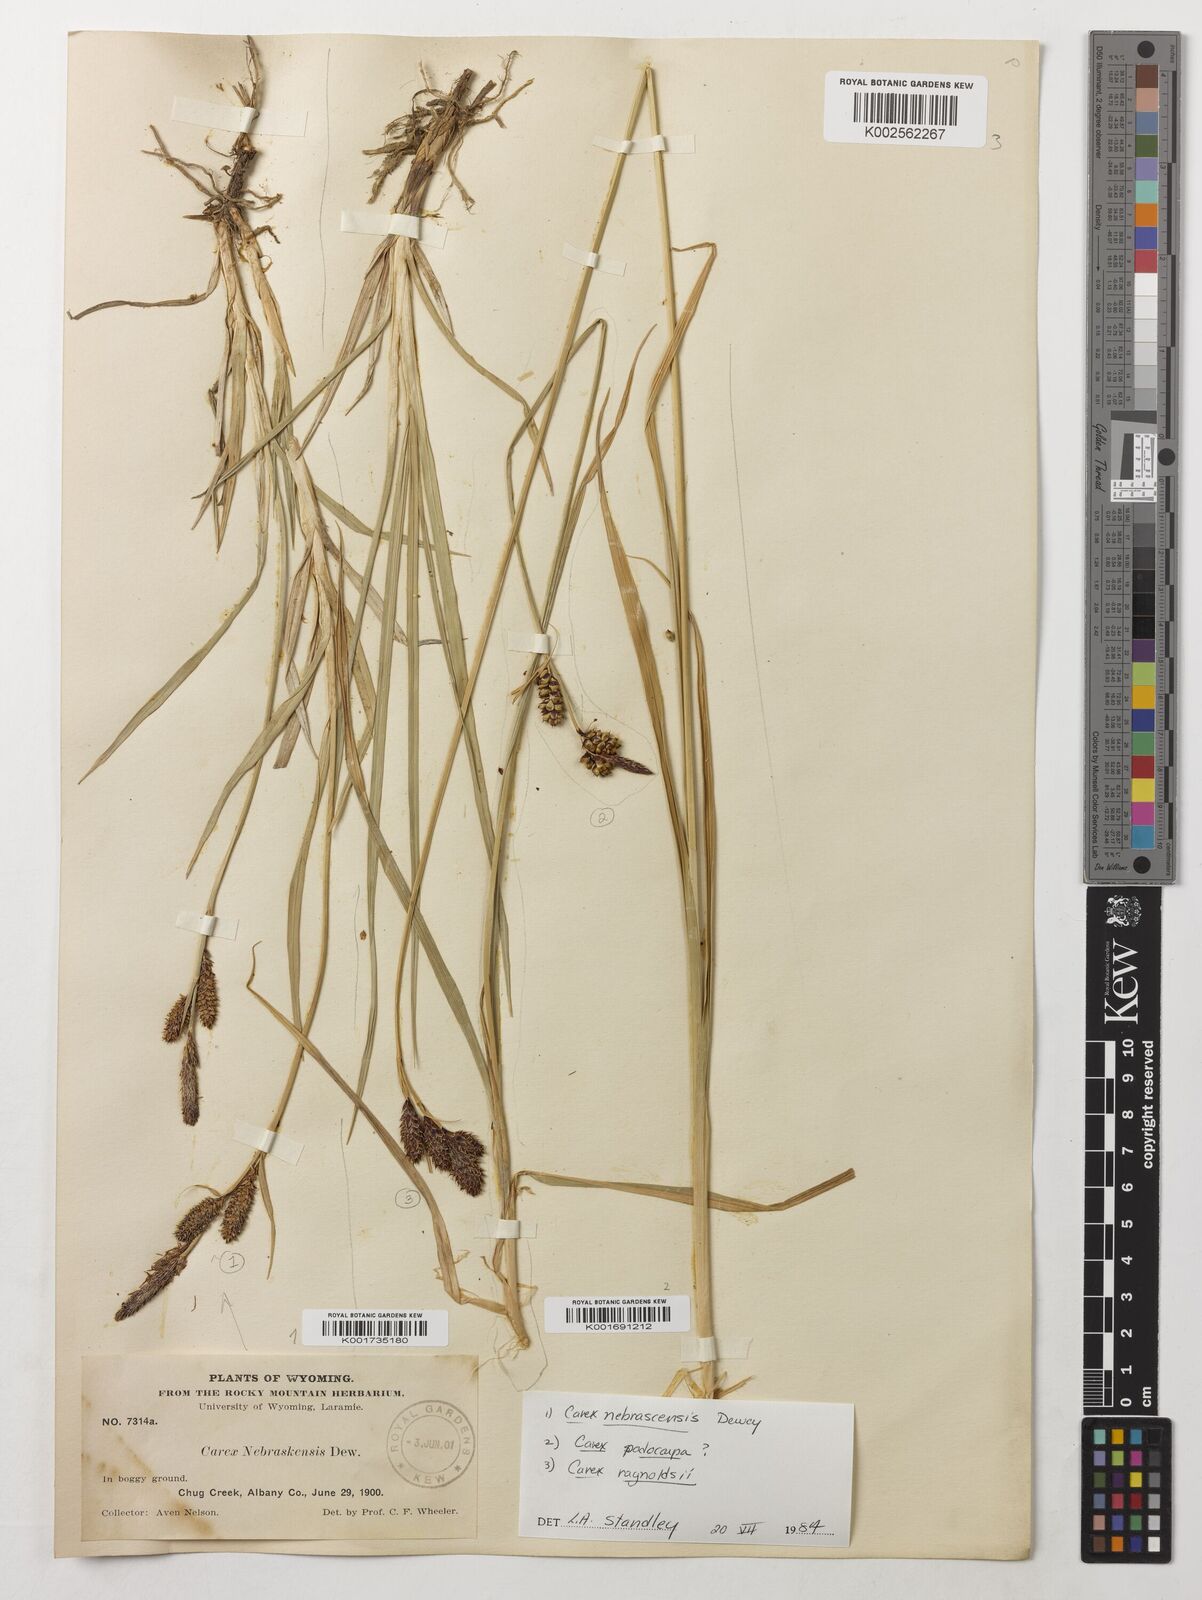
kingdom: Plantae
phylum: Tracheophyta
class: Liliopsida
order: Poales
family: Cyperaceae
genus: Carex
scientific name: Carex raynoldsii
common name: Raynolds' sedge
